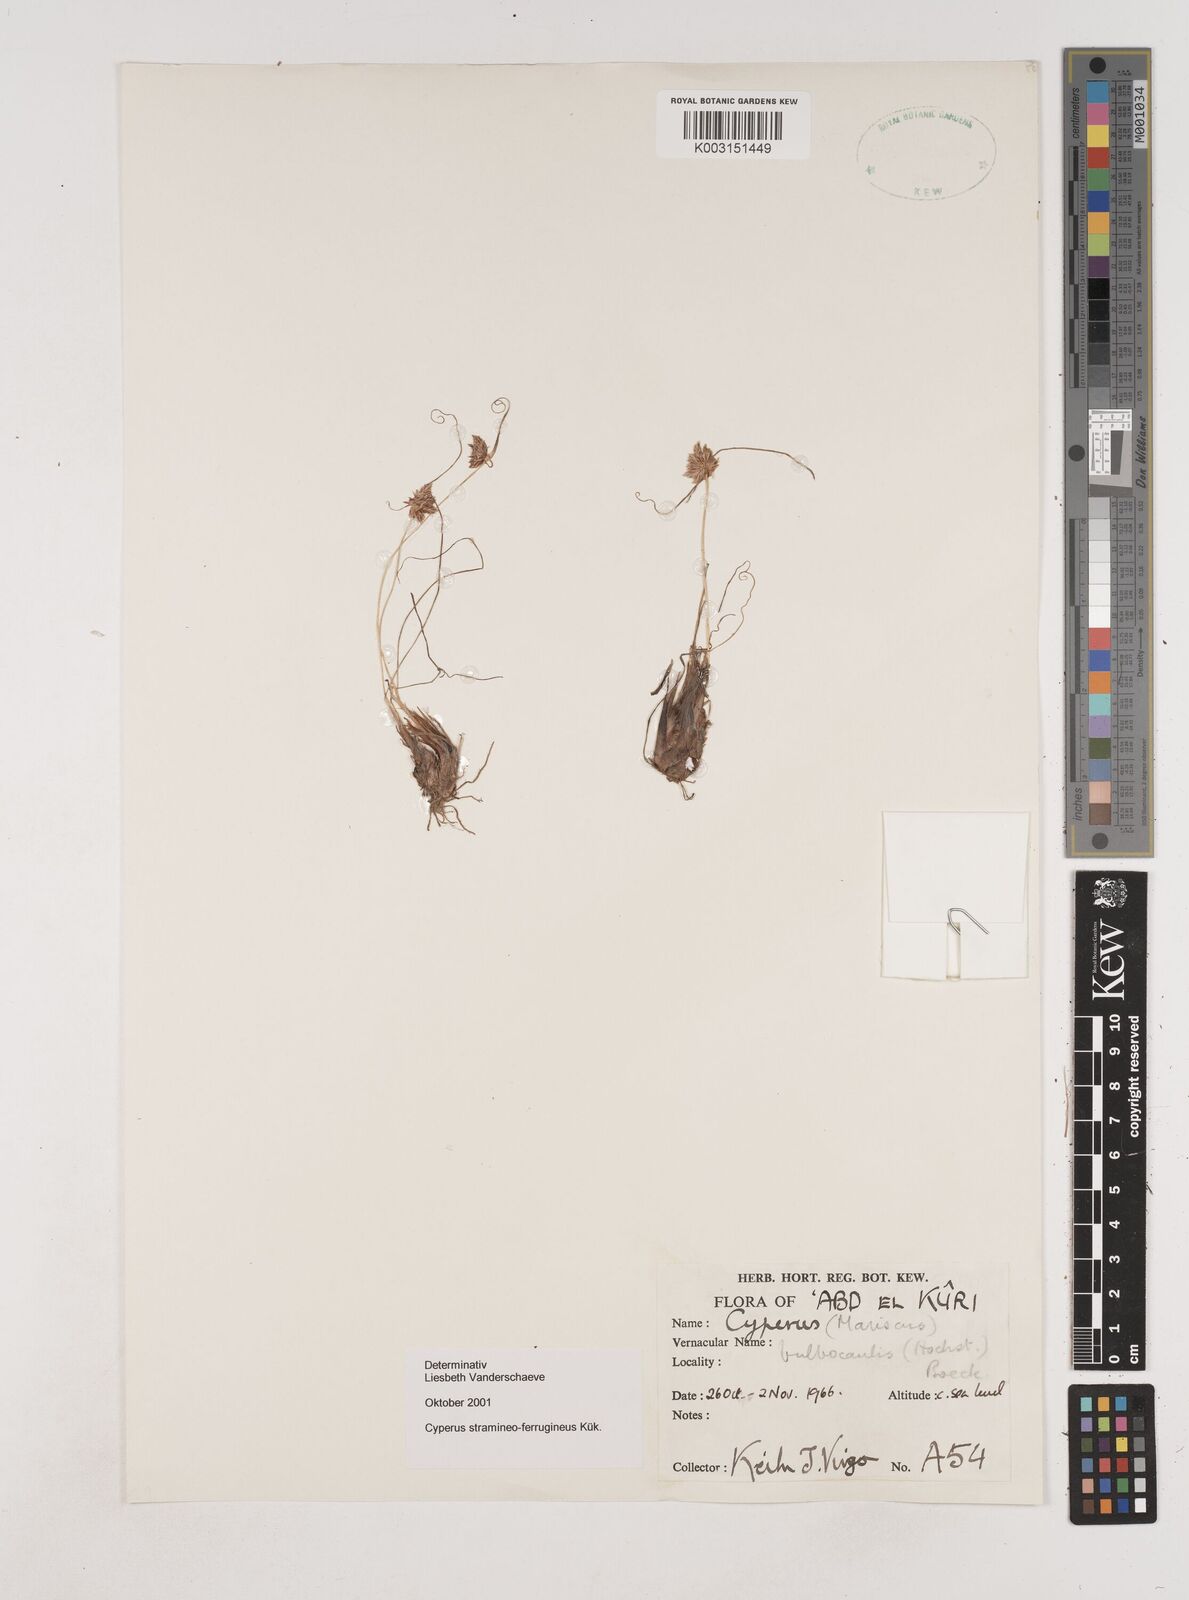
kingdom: Plantae
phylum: Tracheophyta
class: Liliopsida
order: Poales
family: Cyperaceae
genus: Cyperus
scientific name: Cyperus stramineoferrugineus
